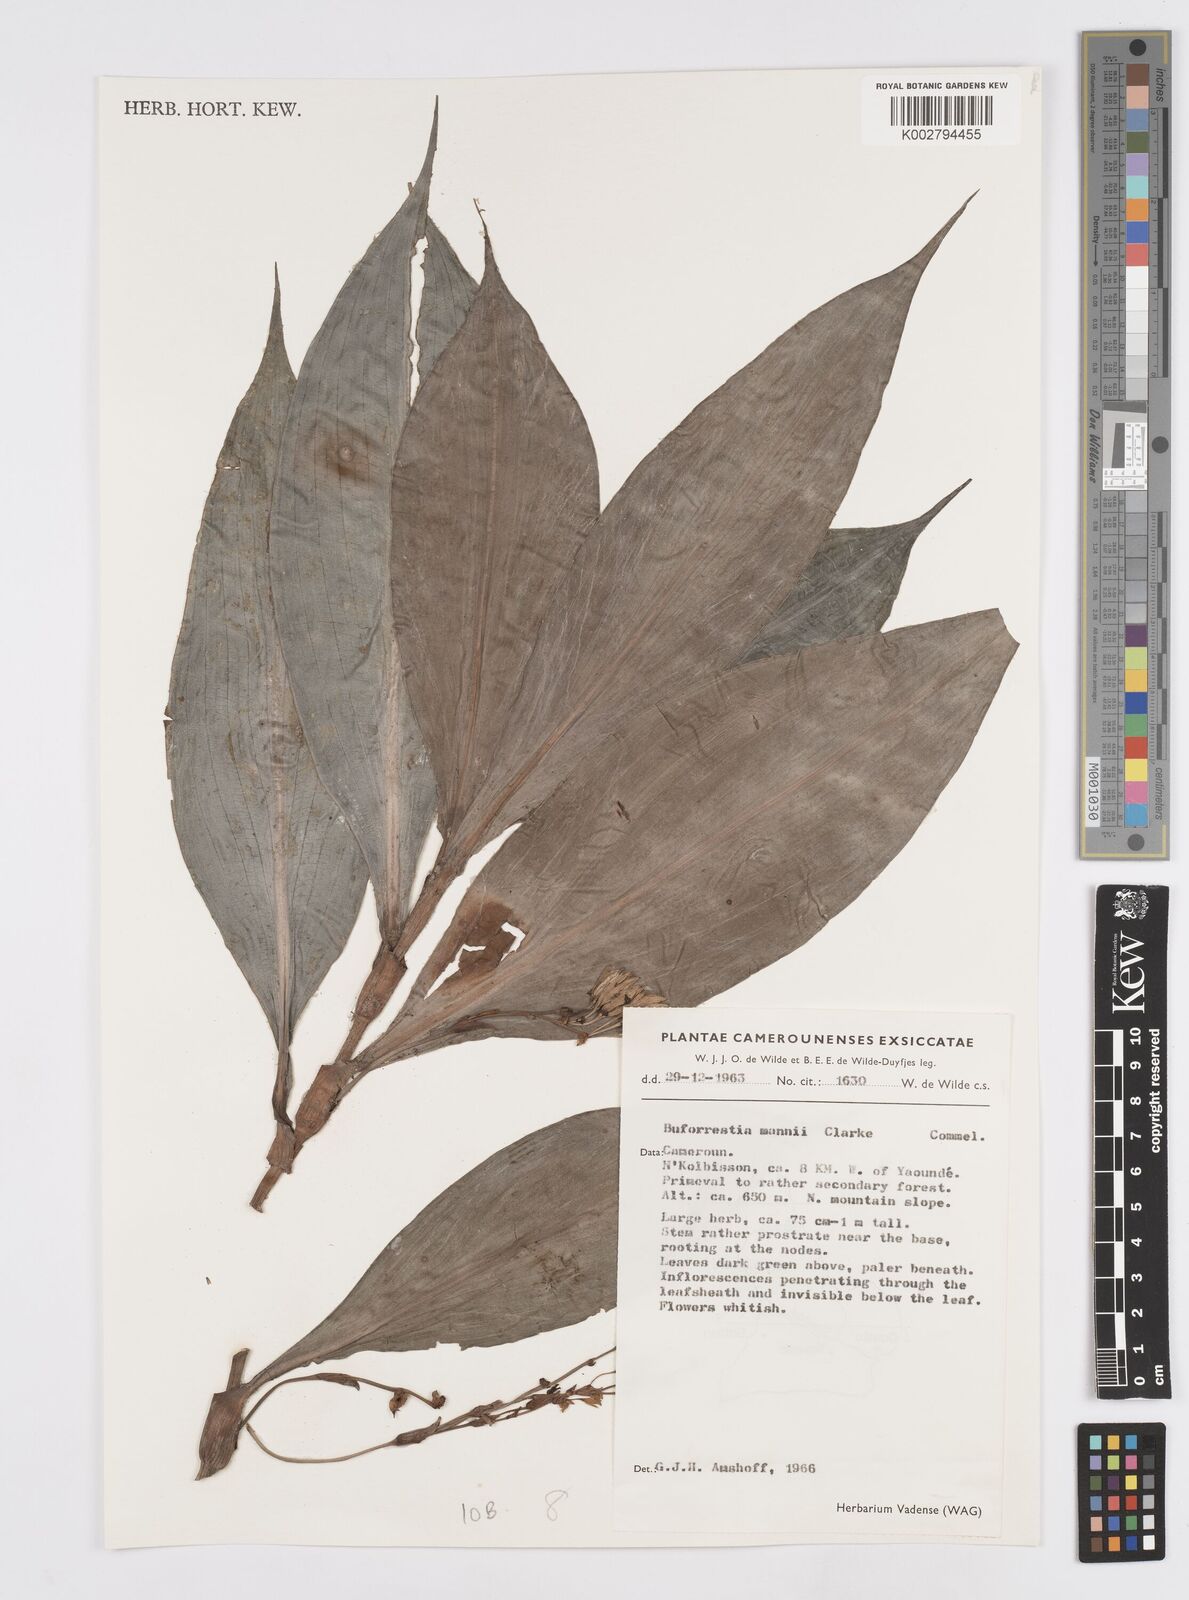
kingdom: Plantae
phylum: Tracheophyta
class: Liliopsida
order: Commelinales
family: Commelinaceae
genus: Buforrestia
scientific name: Buforrestia mannii
